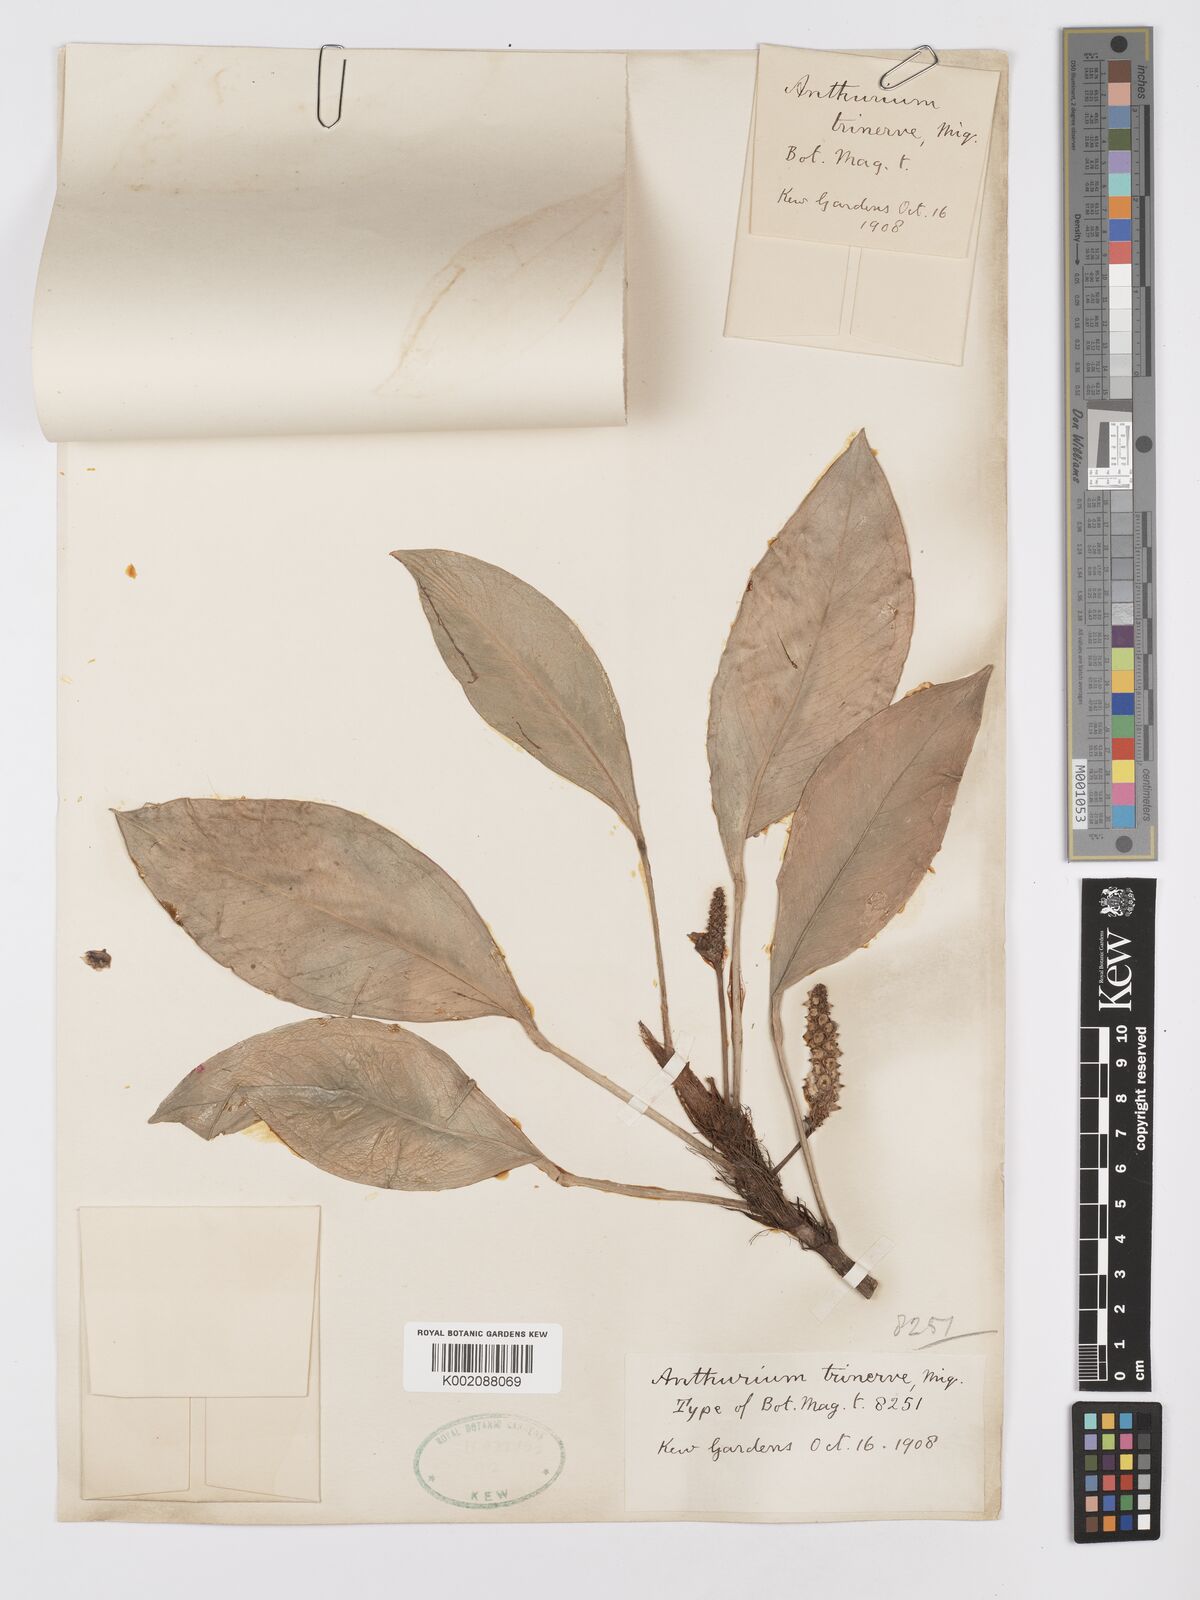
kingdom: Plantae
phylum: Tracheophyta
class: Liliopsida
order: Alismatales
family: Araceae
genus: Anthurium
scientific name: Anthurium obtusum
